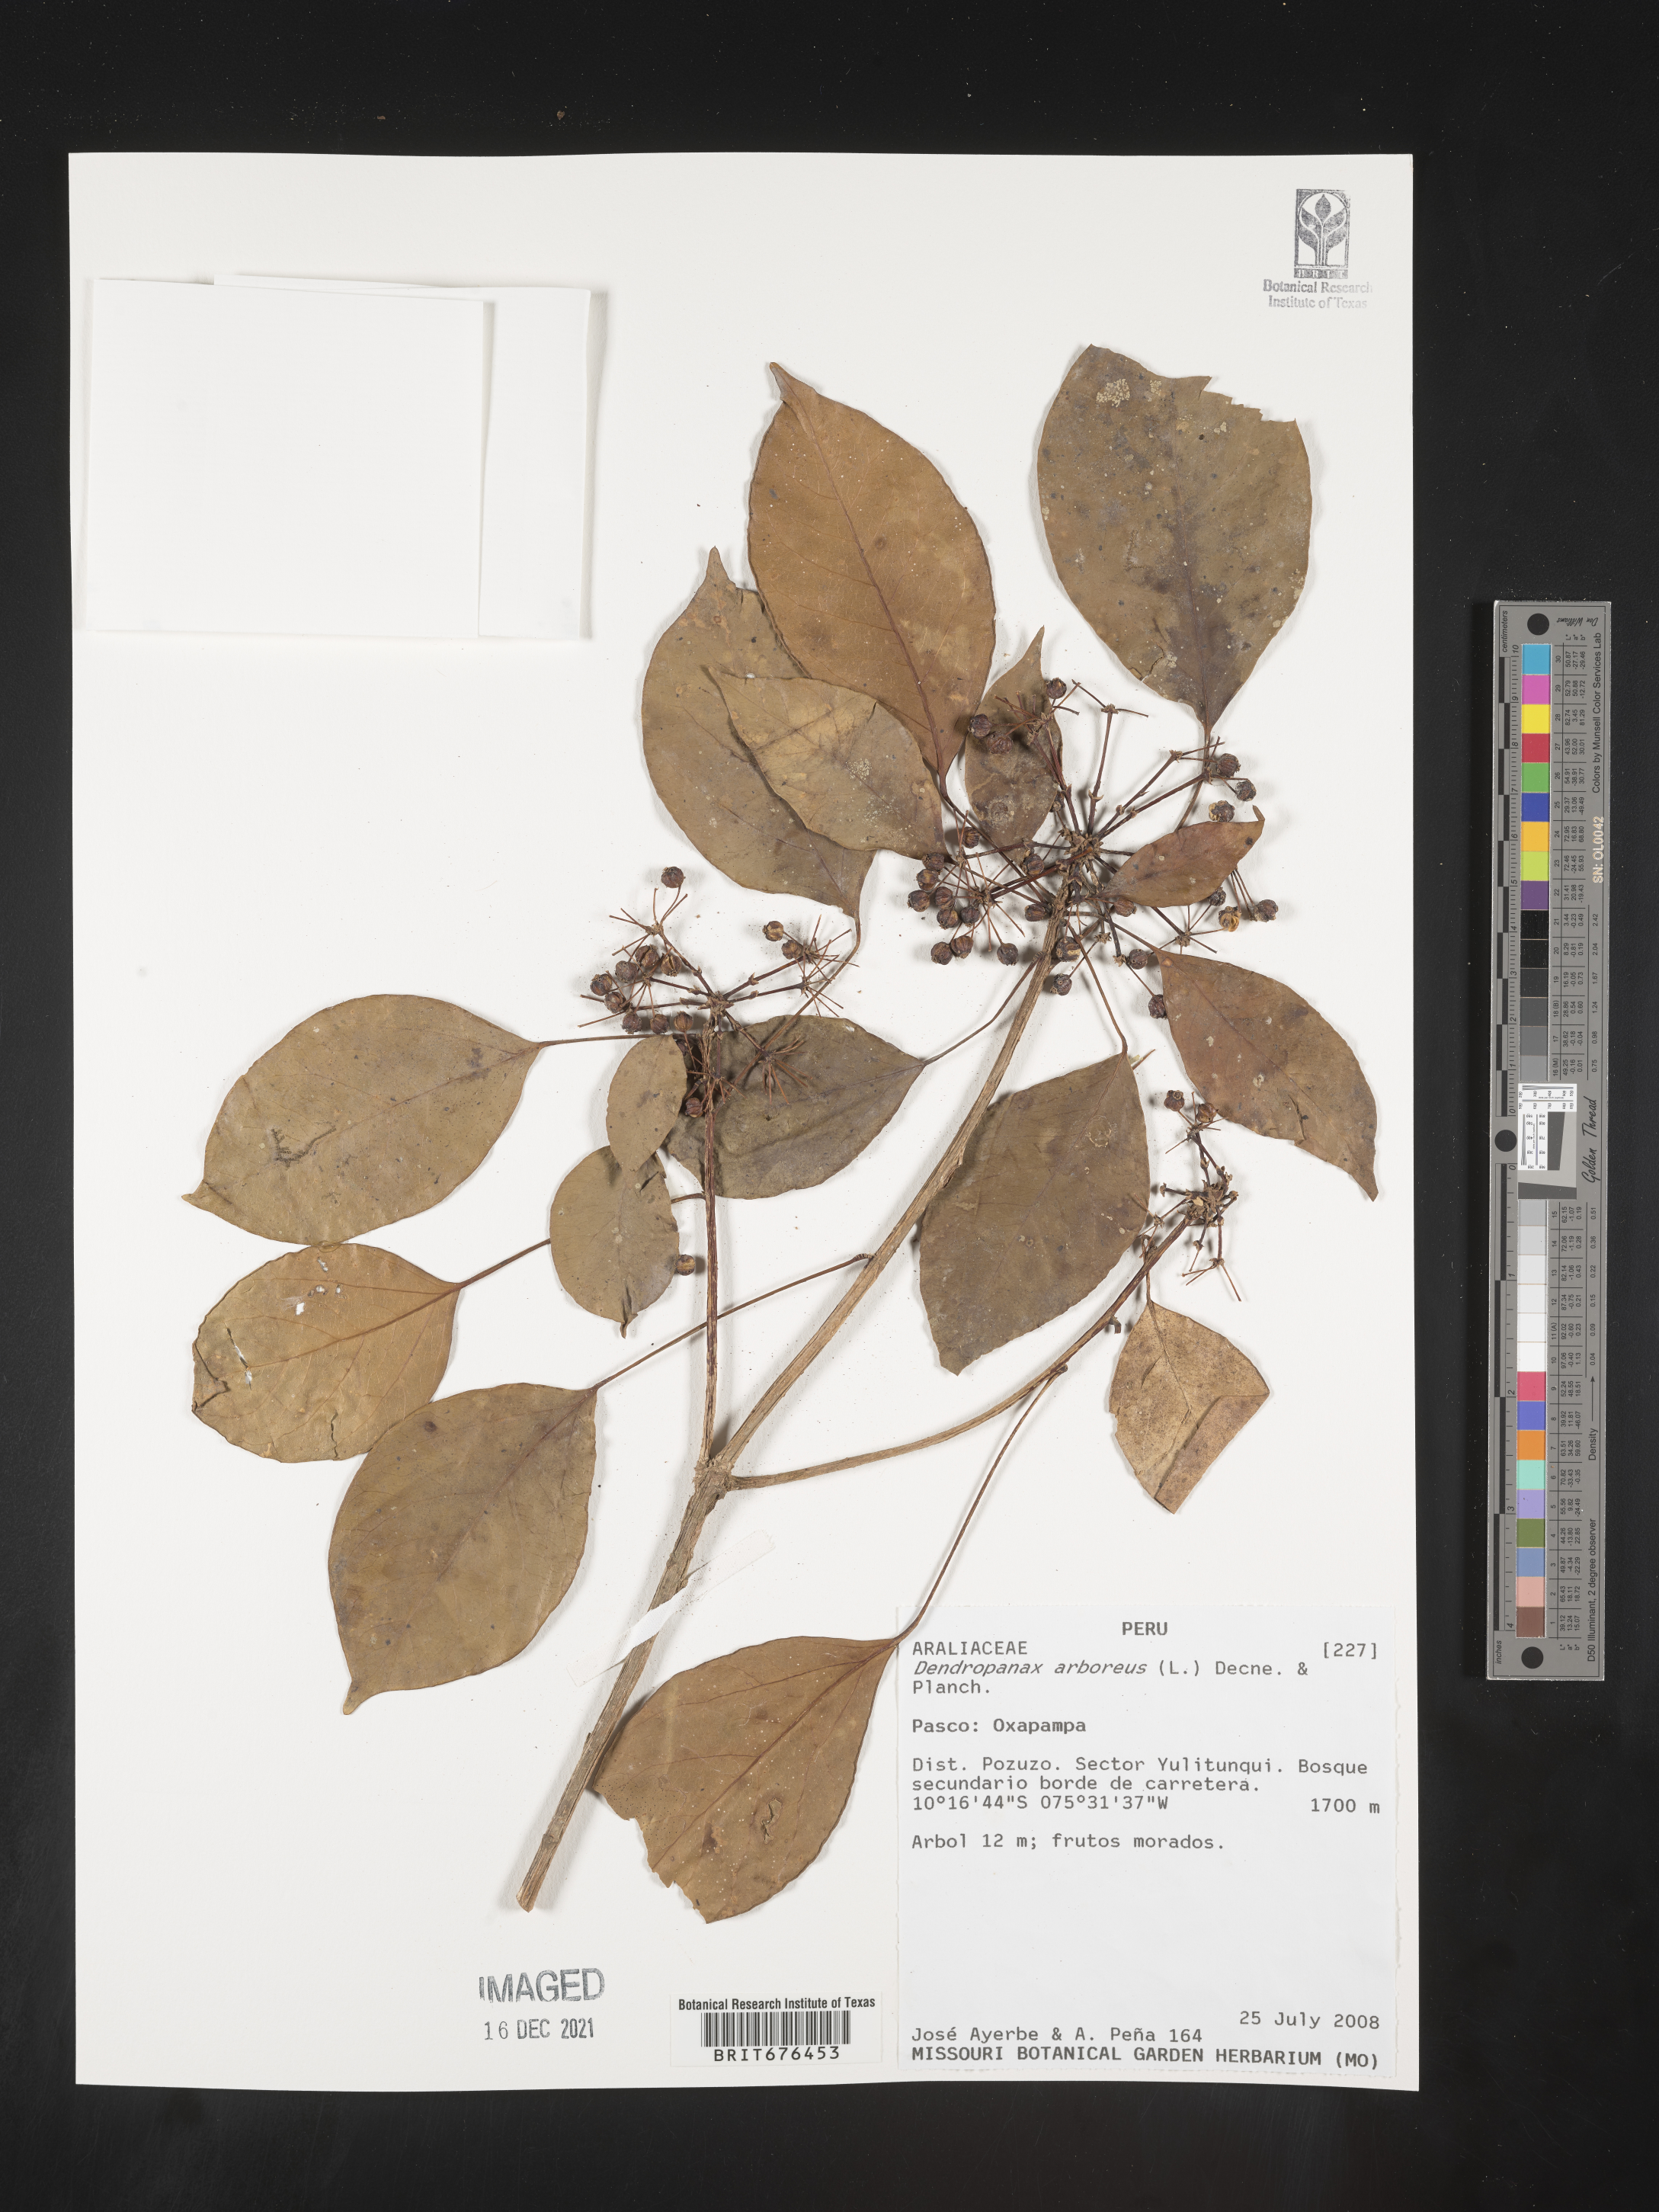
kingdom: Plantae
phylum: Tracheophyta
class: Magnoliopsida
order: Apiales
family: Araliaceae
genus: Dendropanax
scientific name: Dendropanax
